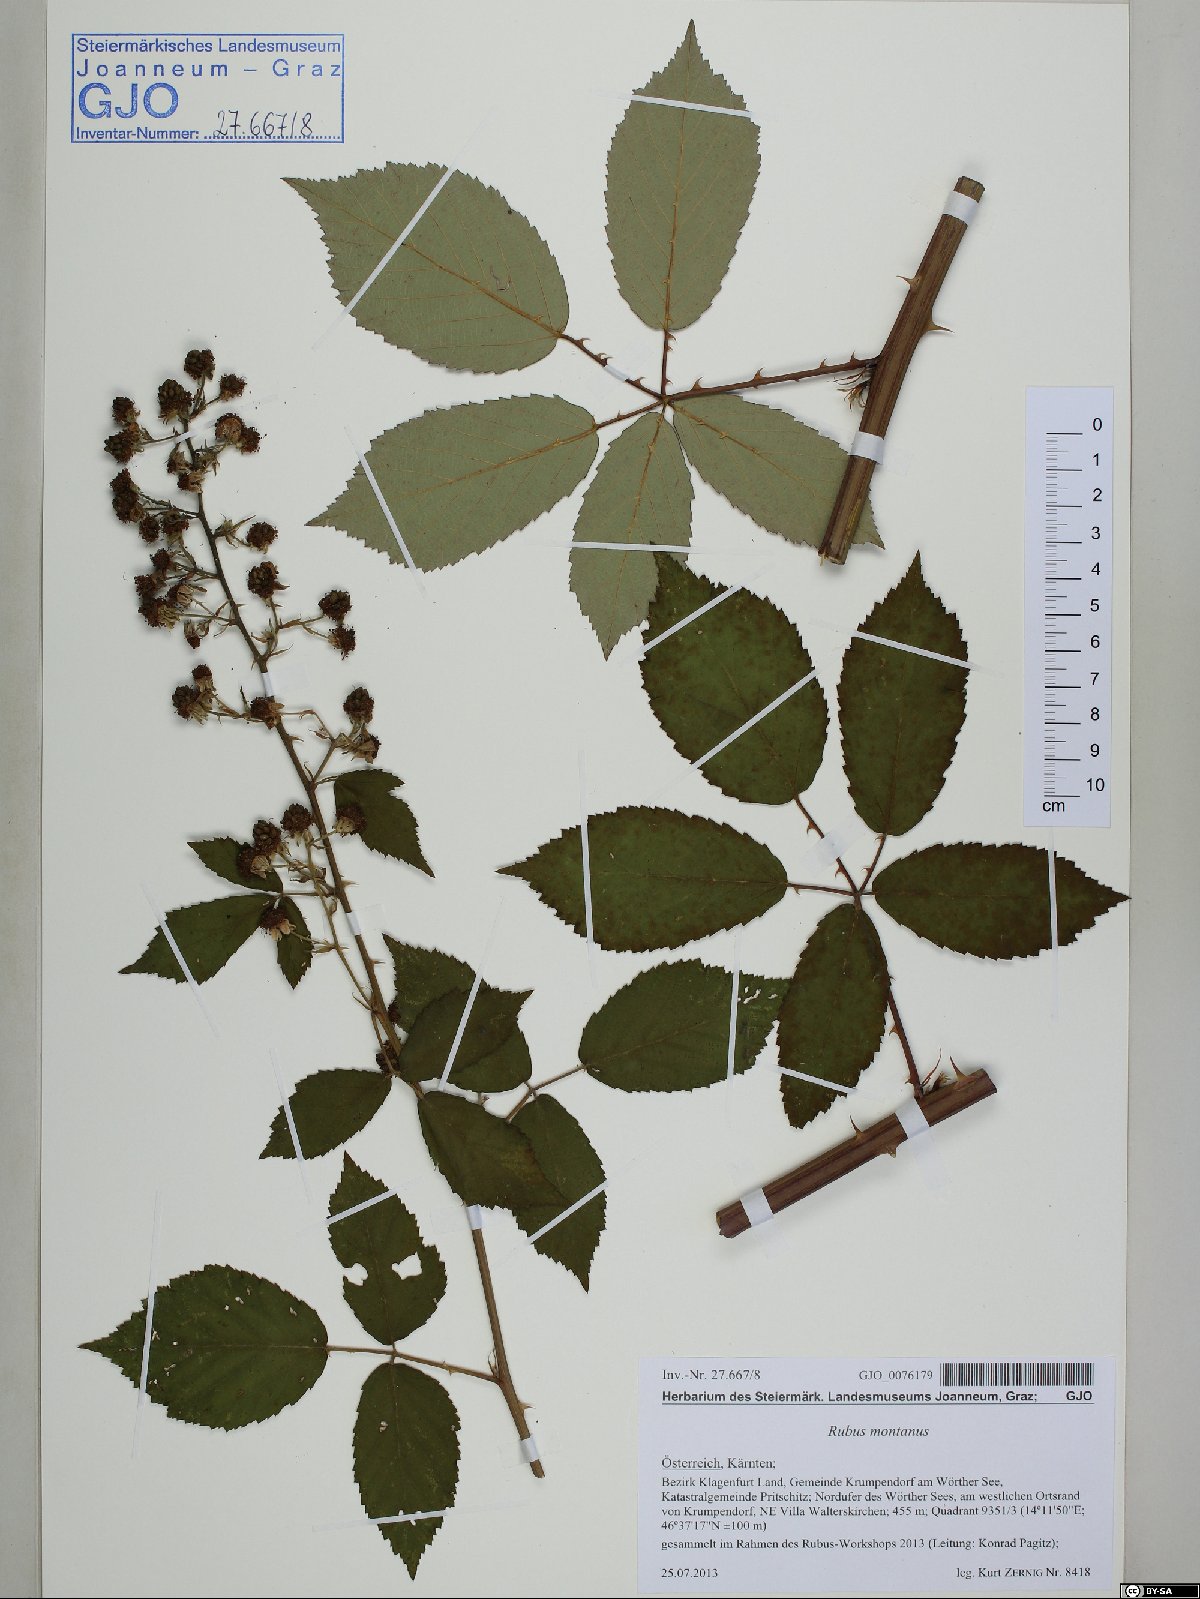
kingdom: Plantae
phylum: Tracheophyta
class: Magnoliopsida
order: Rosales
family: Rosaceae
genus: Rubus
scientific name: Rubus montanus
